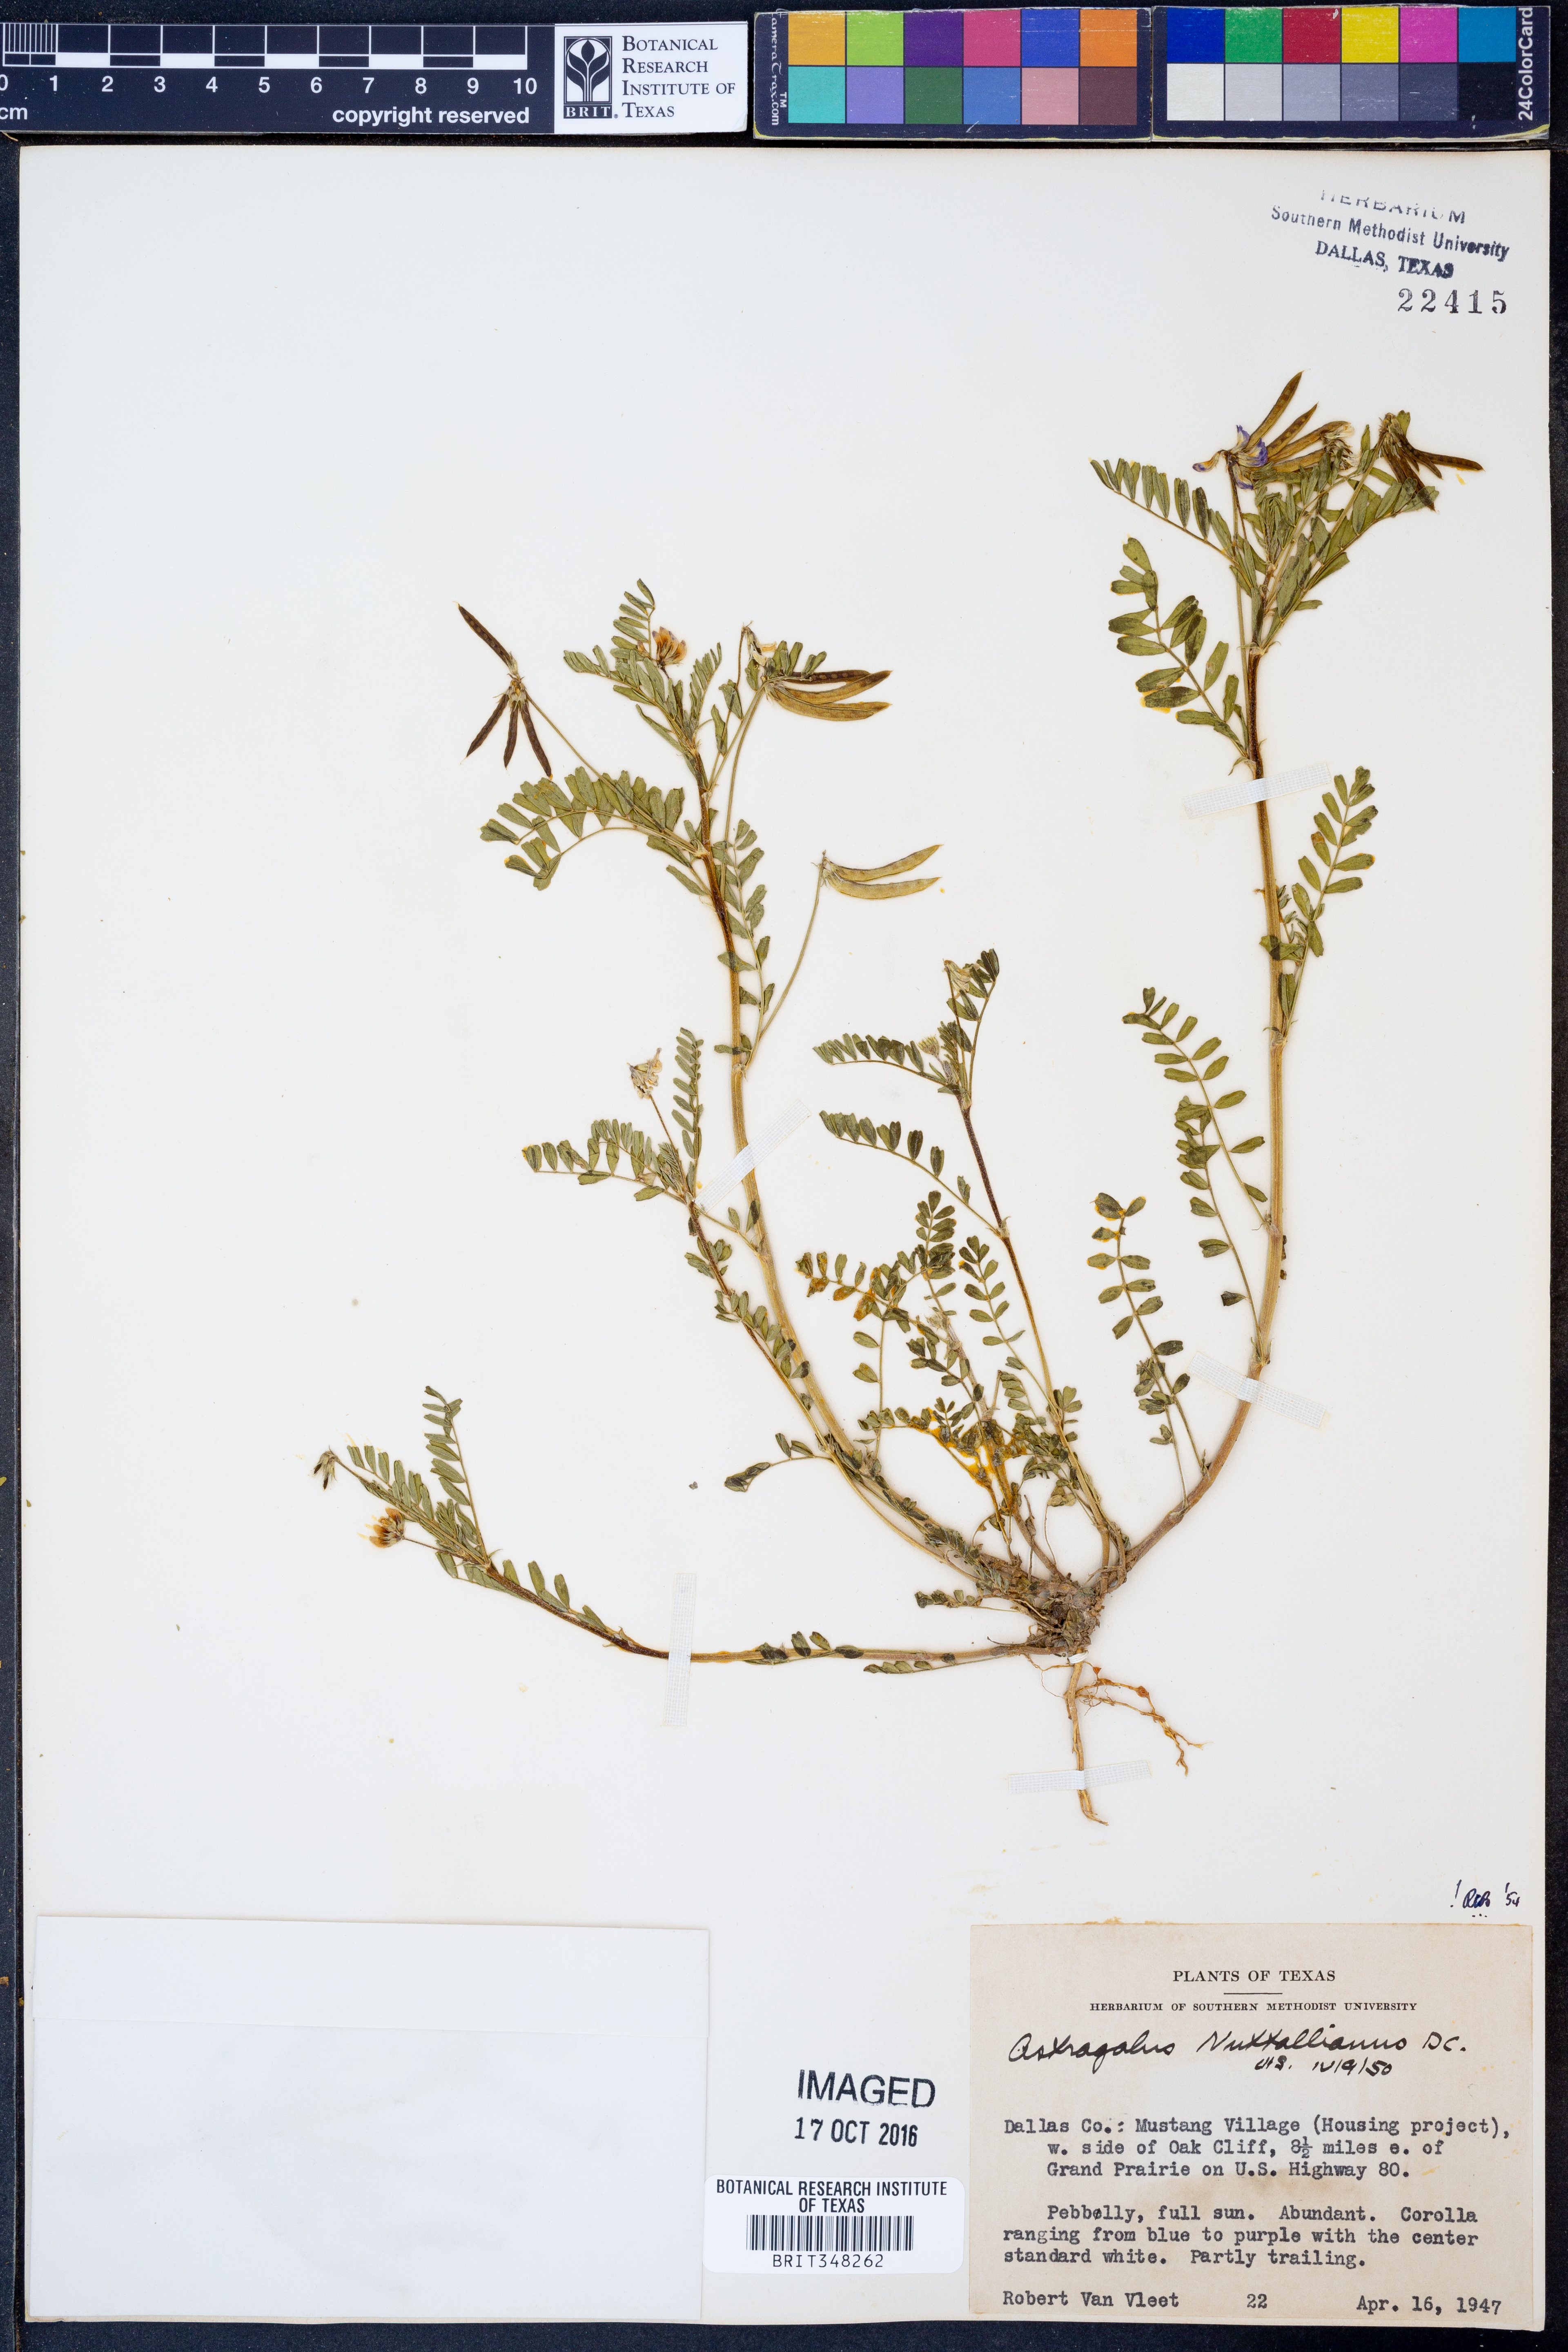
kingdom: Plantae
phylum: Tracheophyta
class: Magnoliopsida
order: Fabales
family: Fabaceae
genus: Astragalus
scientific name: Astragalus nuttallianus
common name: Smallflowered milkvetch
